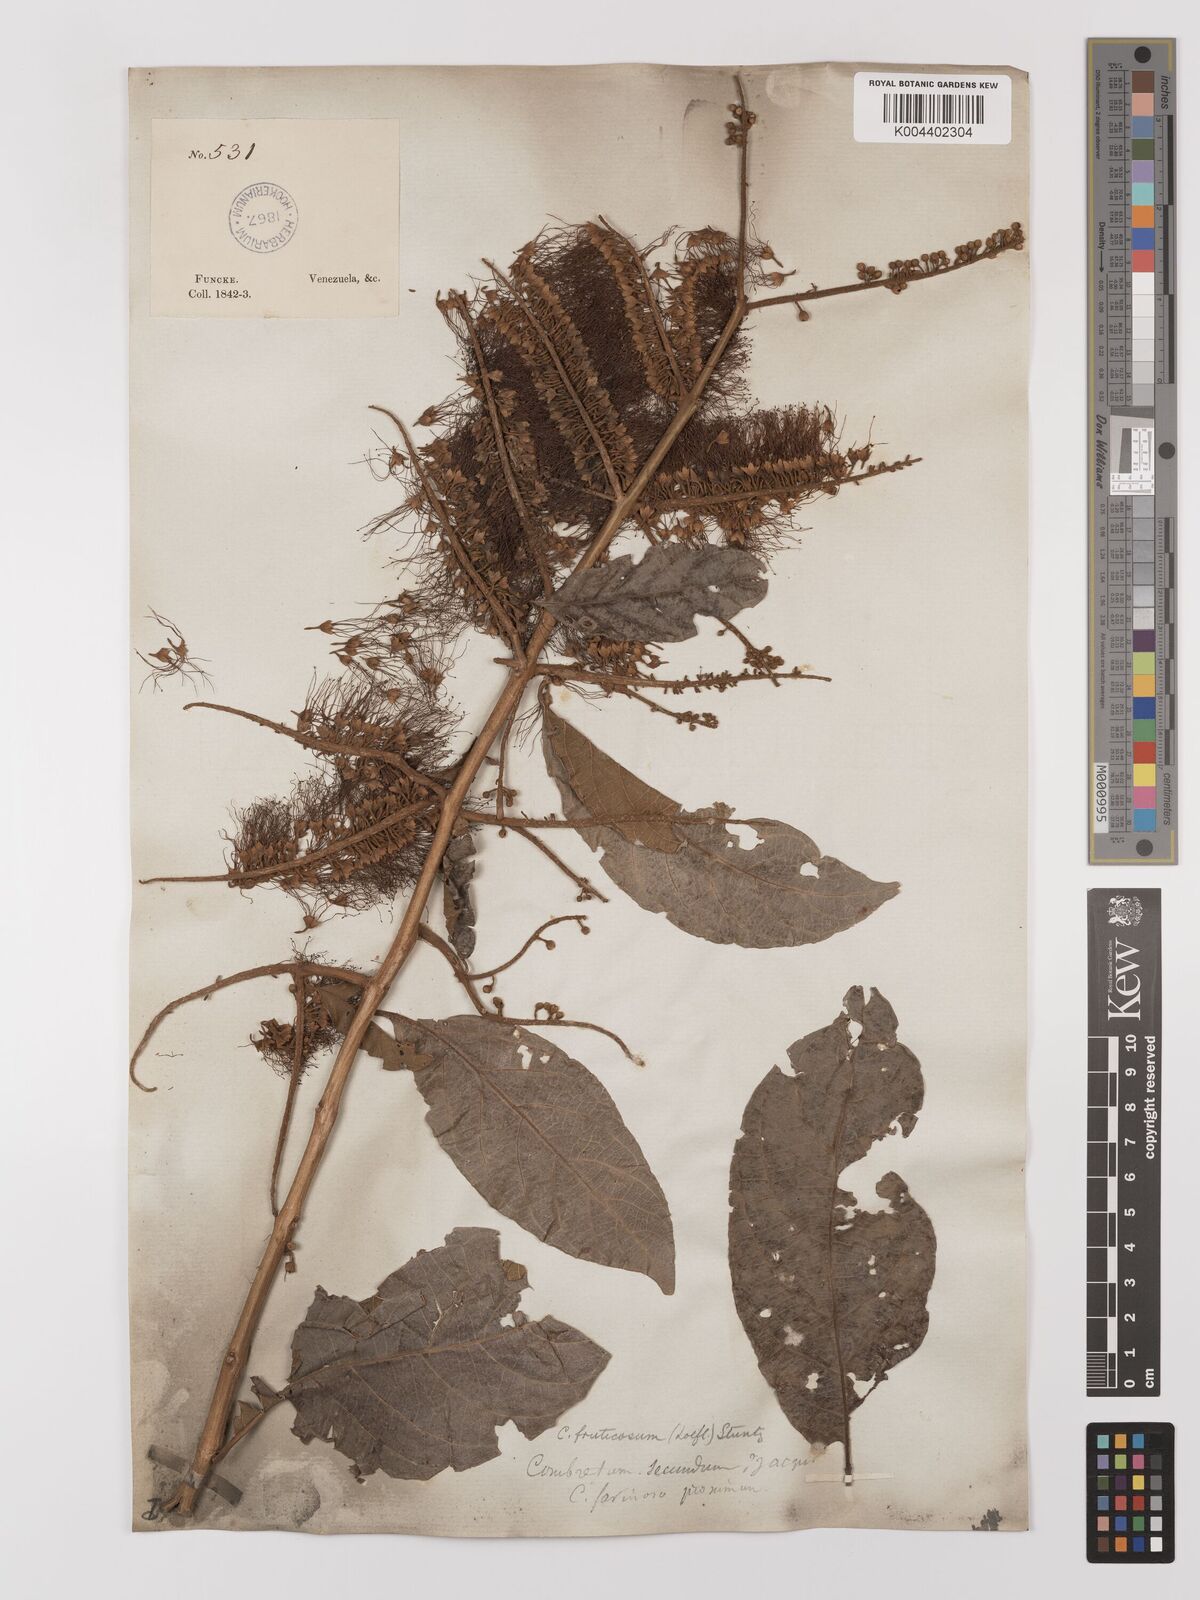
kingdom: Plantae
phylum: Tracheophyta
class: Magnoliopsida
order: Myrtales
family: Combretaceae
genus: Combretum
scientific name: Combretum fruticosum
